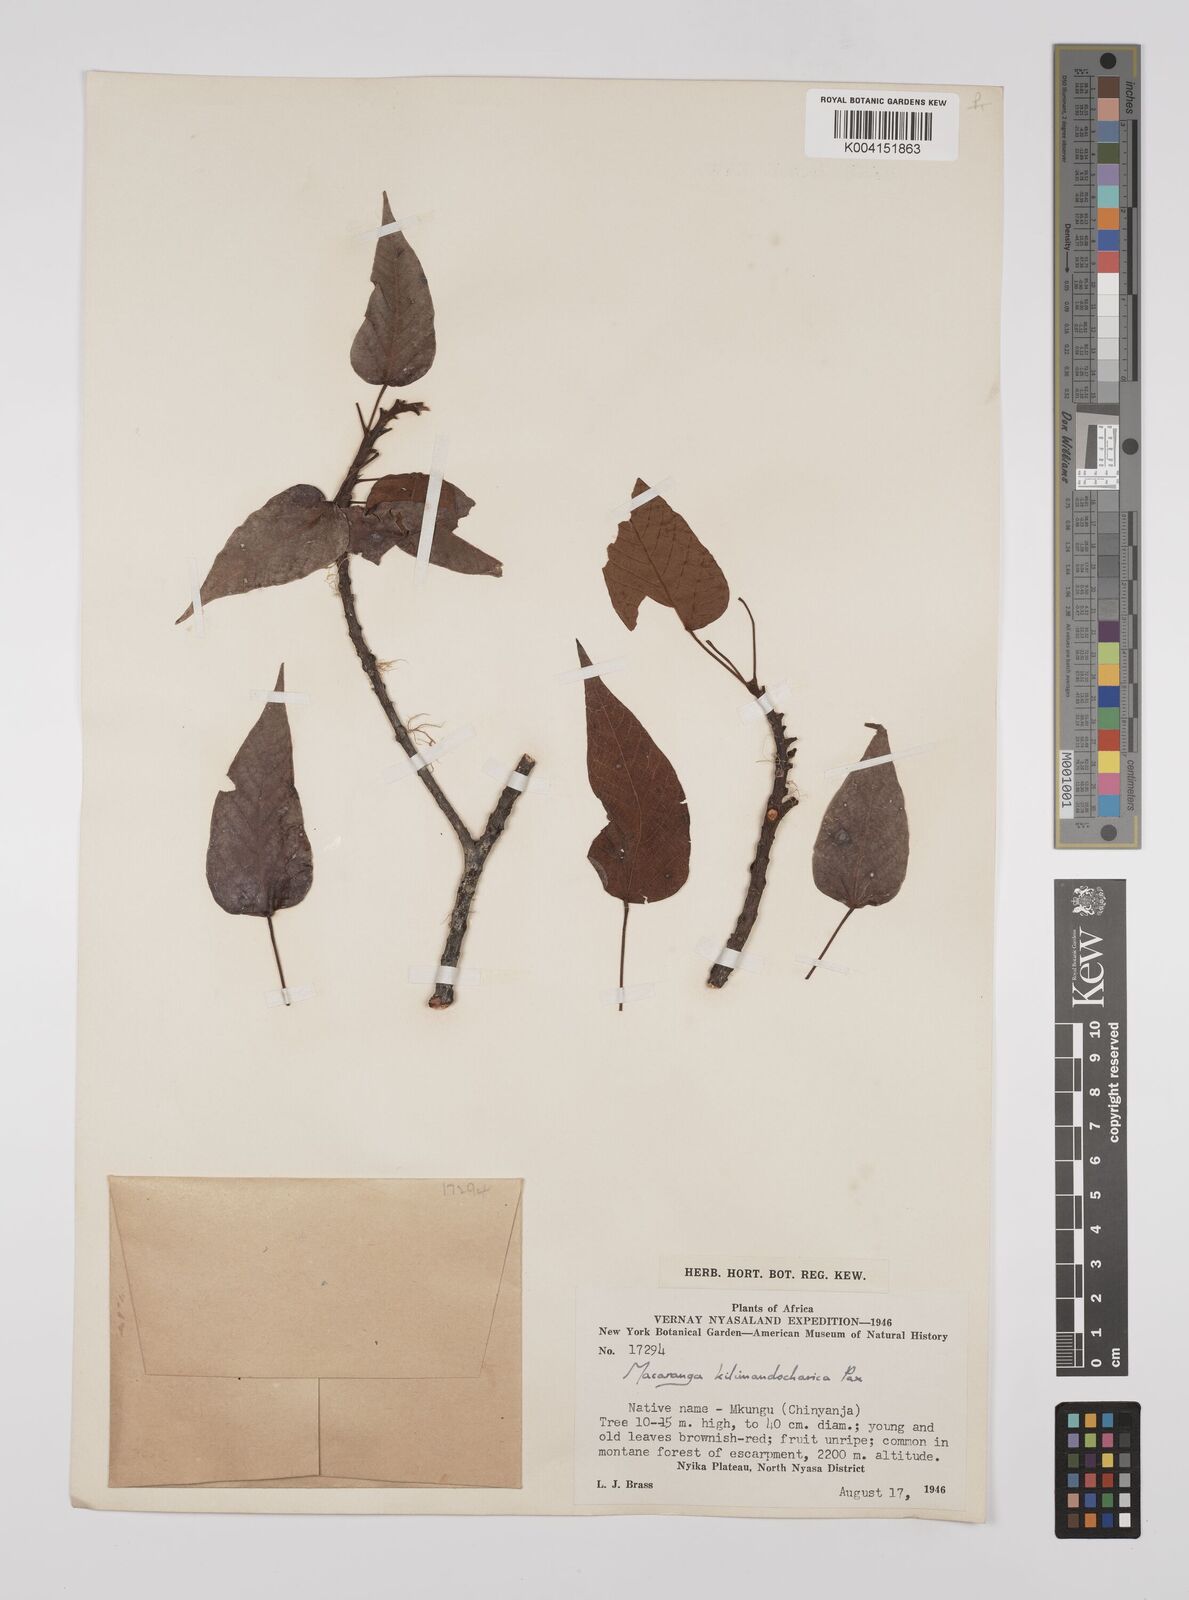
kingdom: Plantae
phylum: Tracheophyta
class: Magnoliopsida
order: Malpighiales
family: Euphorbiaceae
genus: Macaranga
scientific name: Macaranga kilimandscharica
